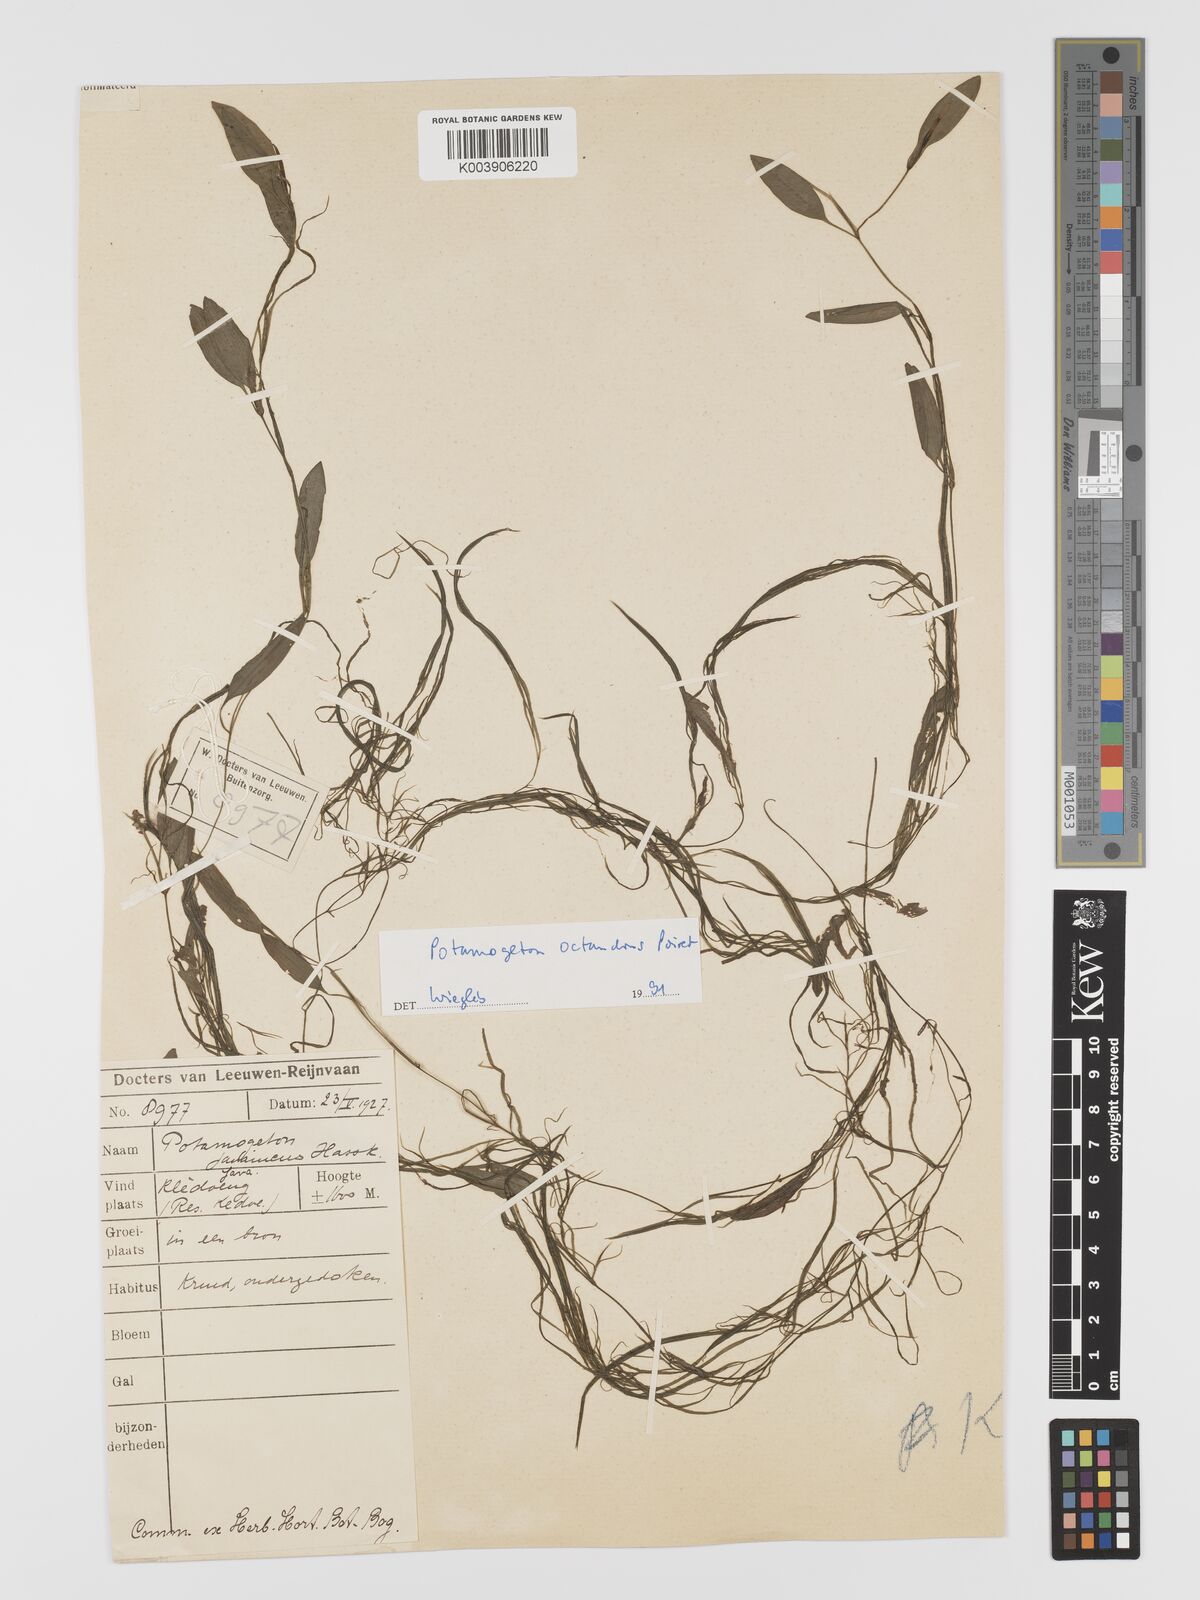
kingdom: Plantae
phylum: Tracheophyta
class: Liliopsida
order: Alismatales
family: Potamogetonaceae
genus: Potamogeton
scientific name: Potamogeton octandrus
